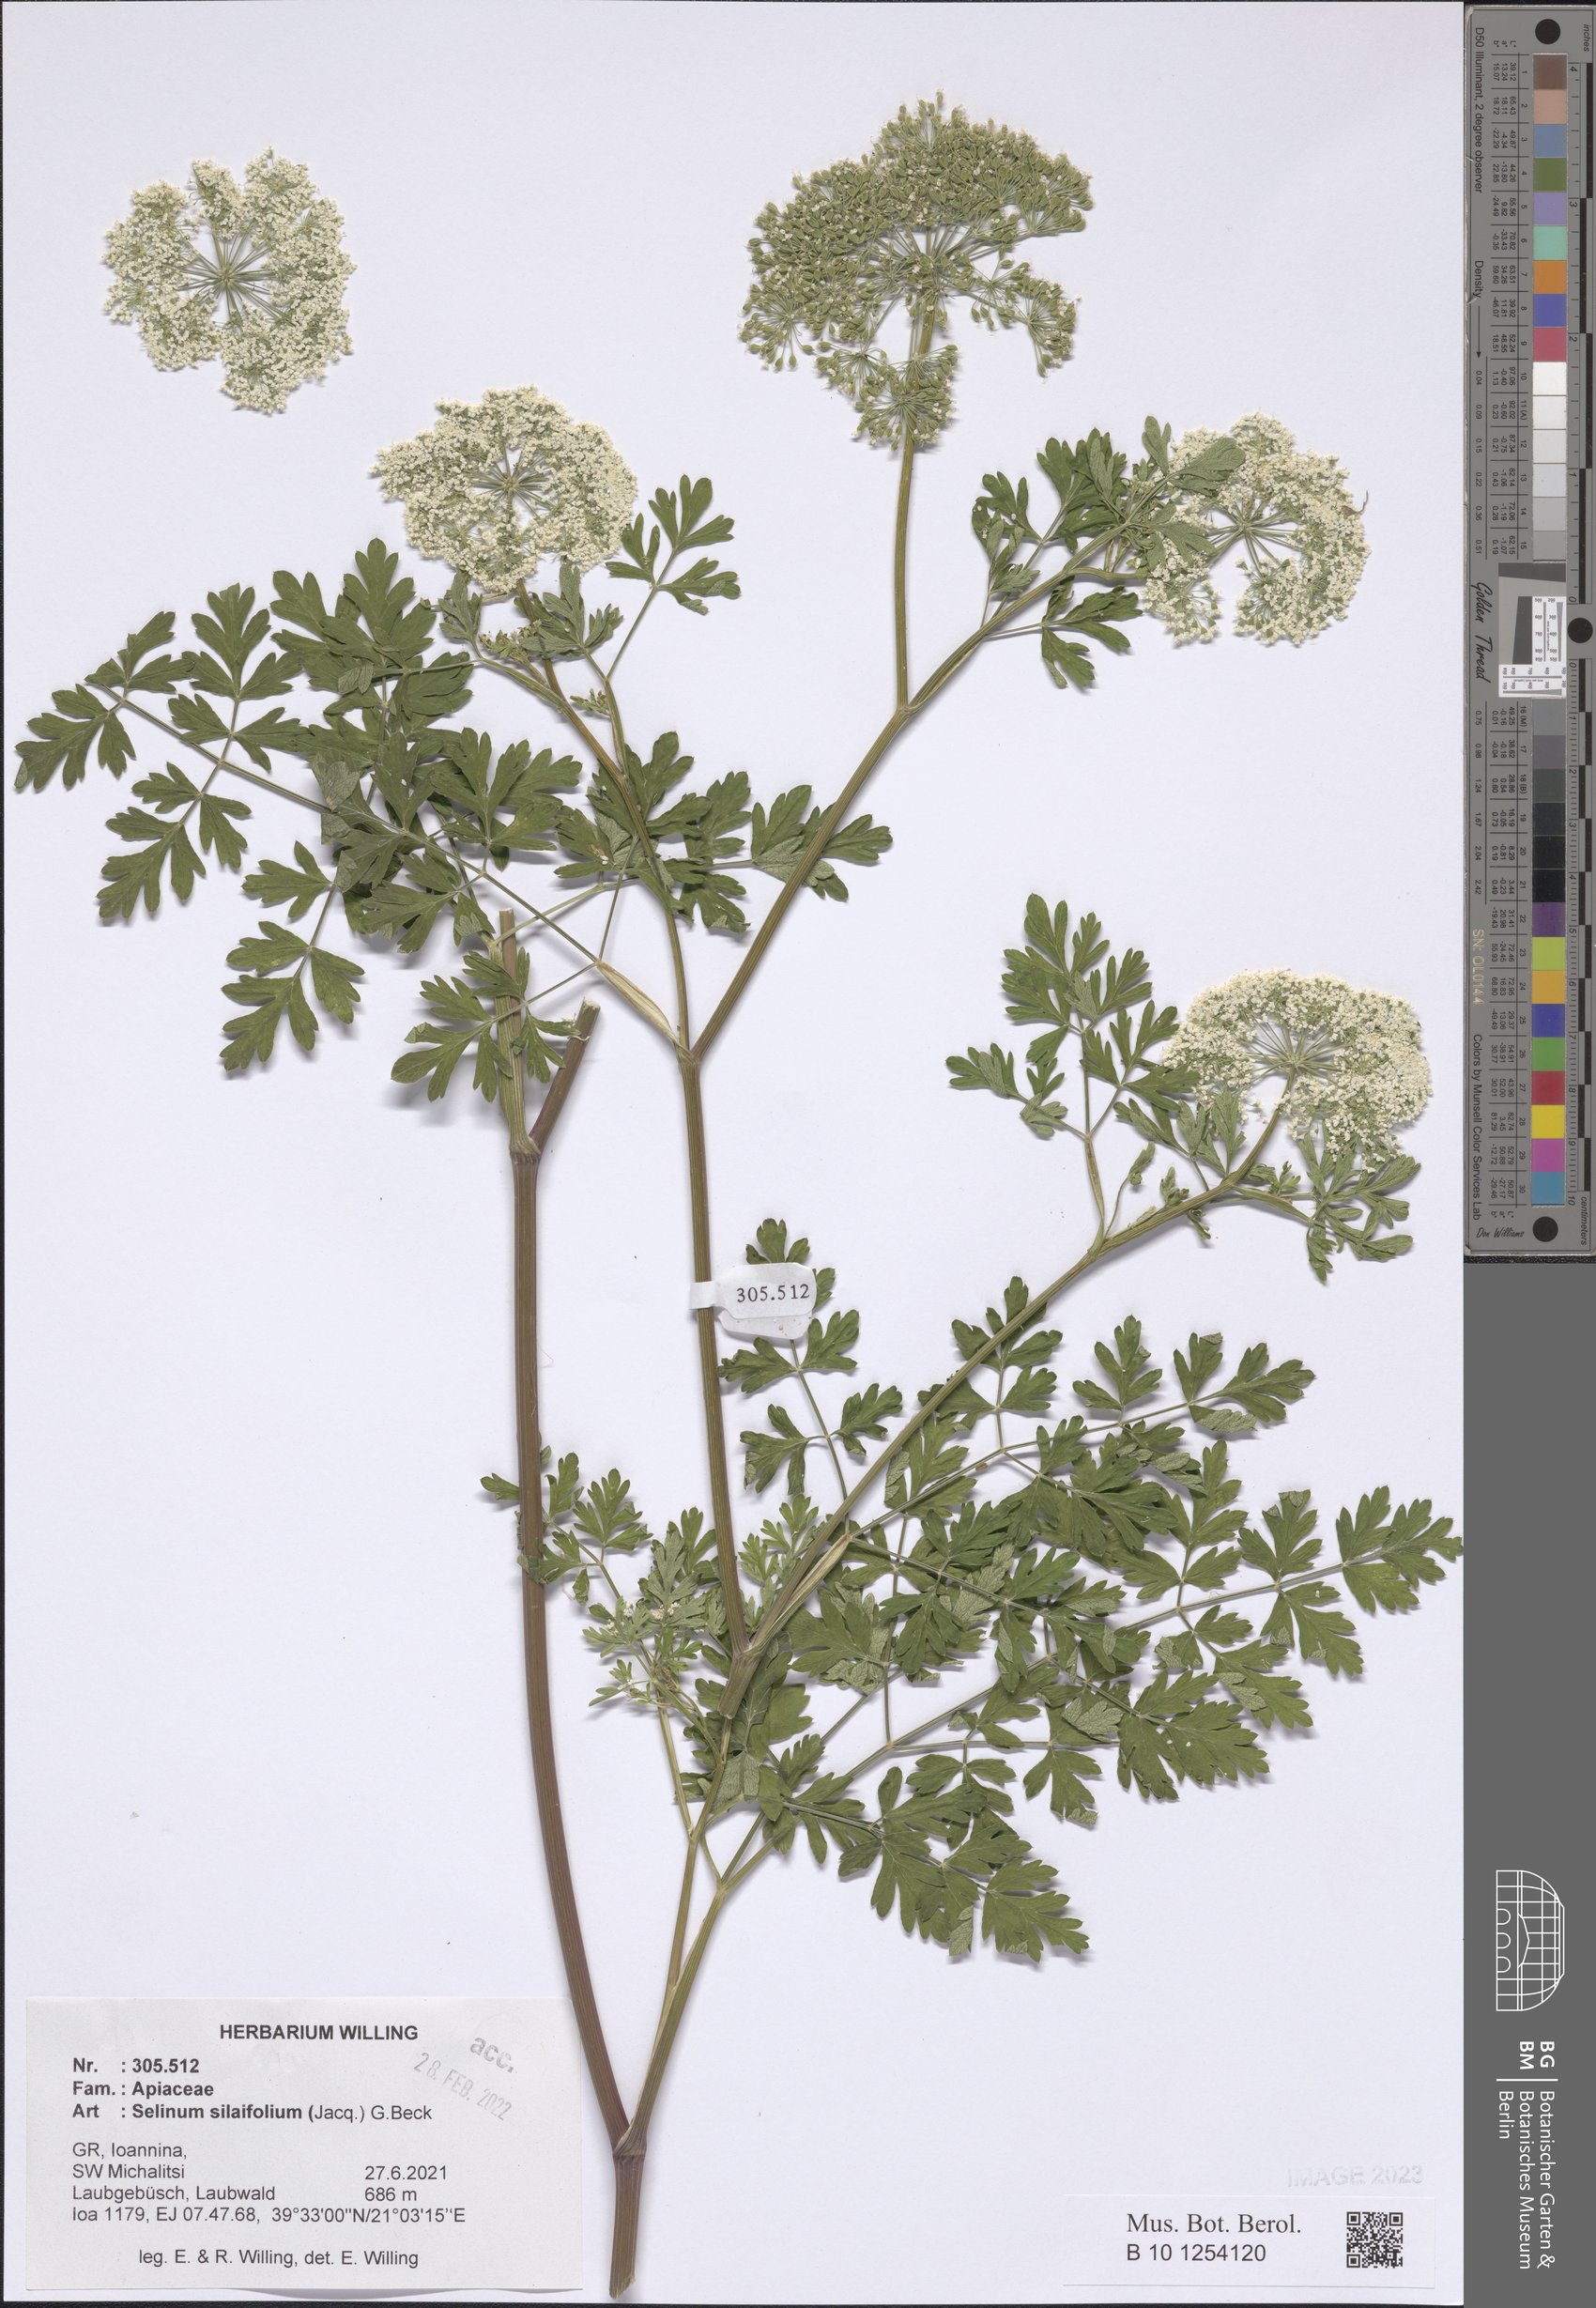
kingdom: Plantae
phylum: Tracheophyta
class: Magnoliopsida
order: Apiales
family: Apiaceae
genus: Katapsuxis
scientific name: Katapsuxis silaifolia
